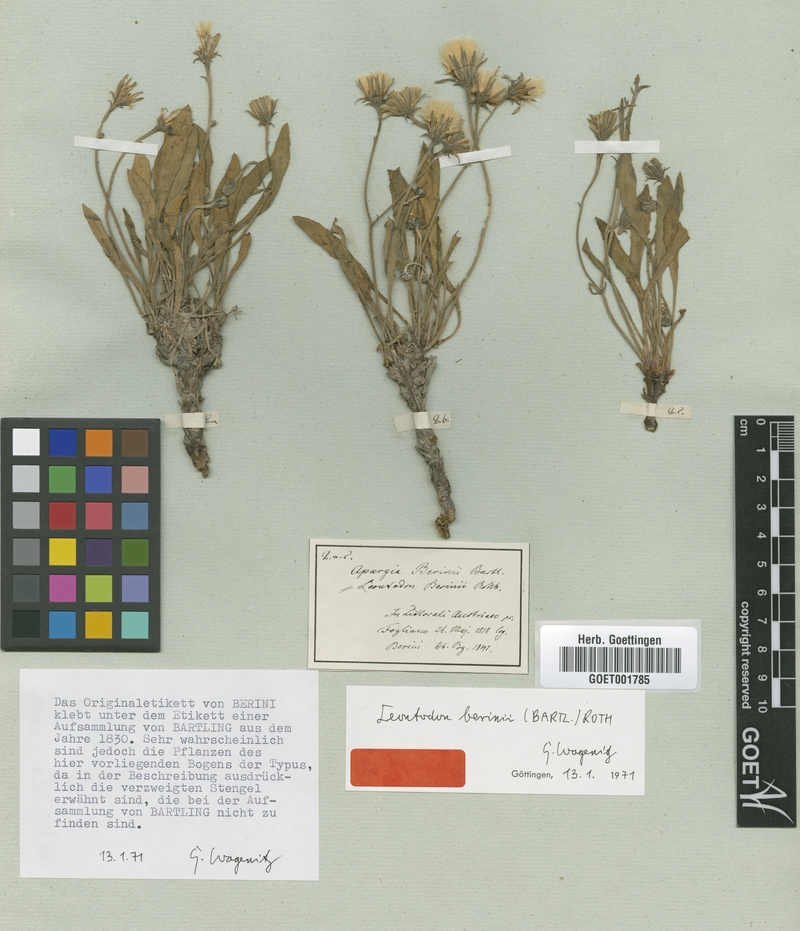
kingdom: Plantae
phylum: Tracheophyta
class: Magnoliopsida
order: Asterales
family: Asteraceae
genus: Leontodon
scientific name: Leontodon berinii
